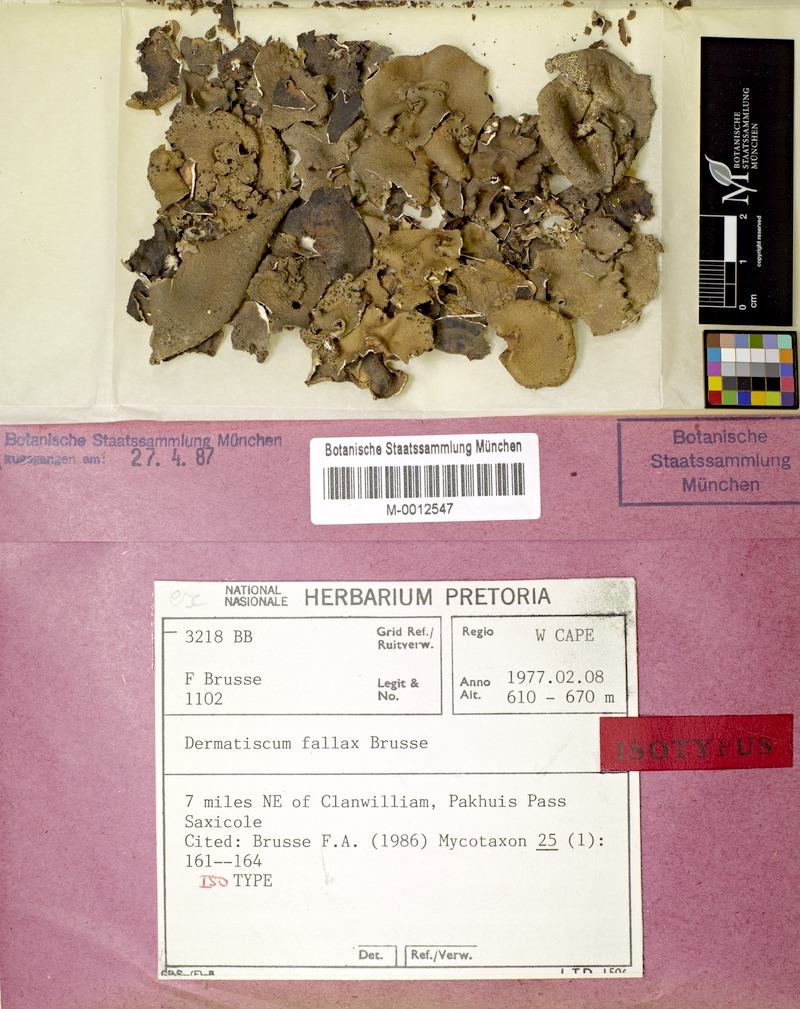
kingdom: Fungi
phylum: Ascomycota
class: Lecanoromycetes
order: Caliciales
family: Caliciaceae
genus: Dermatiscum
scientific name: Dermatiscum fallax
